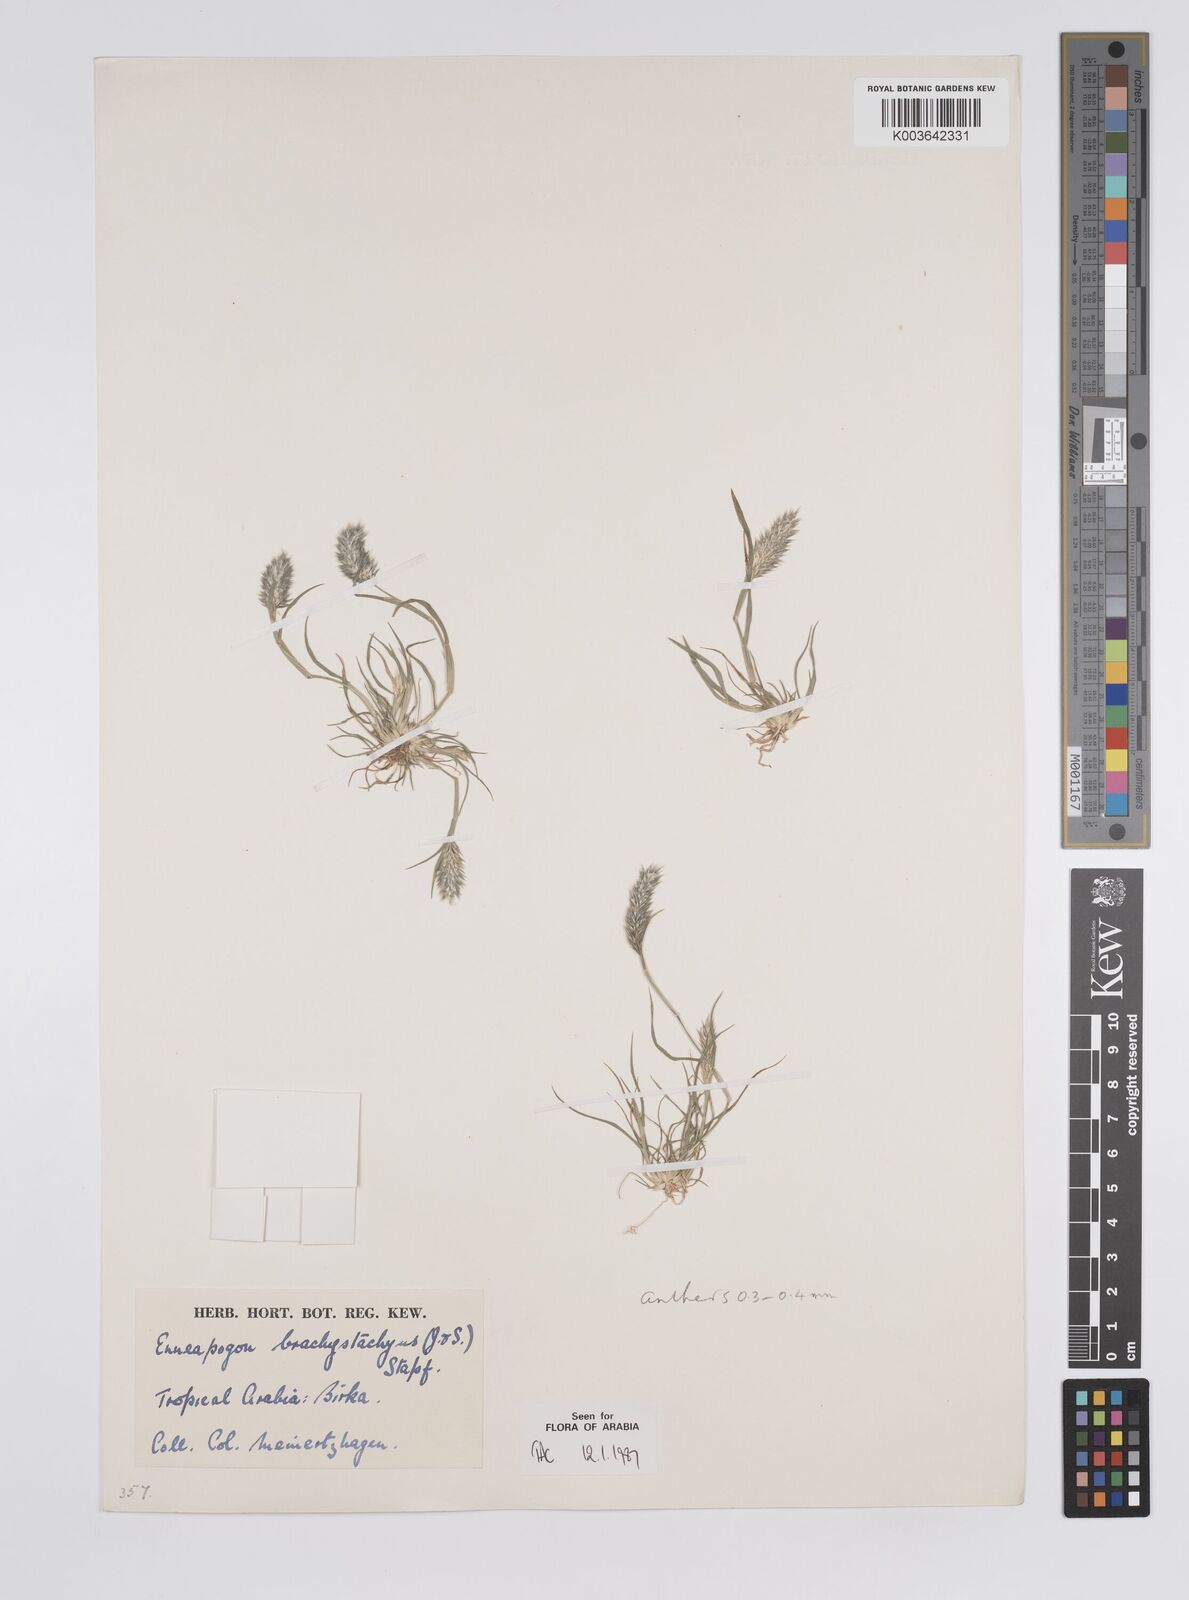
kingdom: Plantae
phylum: Tracheophyta
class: Liliopsida
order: Poales
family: Poaceae
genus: Enneapogon
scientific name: Enneapogon desvauxii
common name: Feather pappus grass
